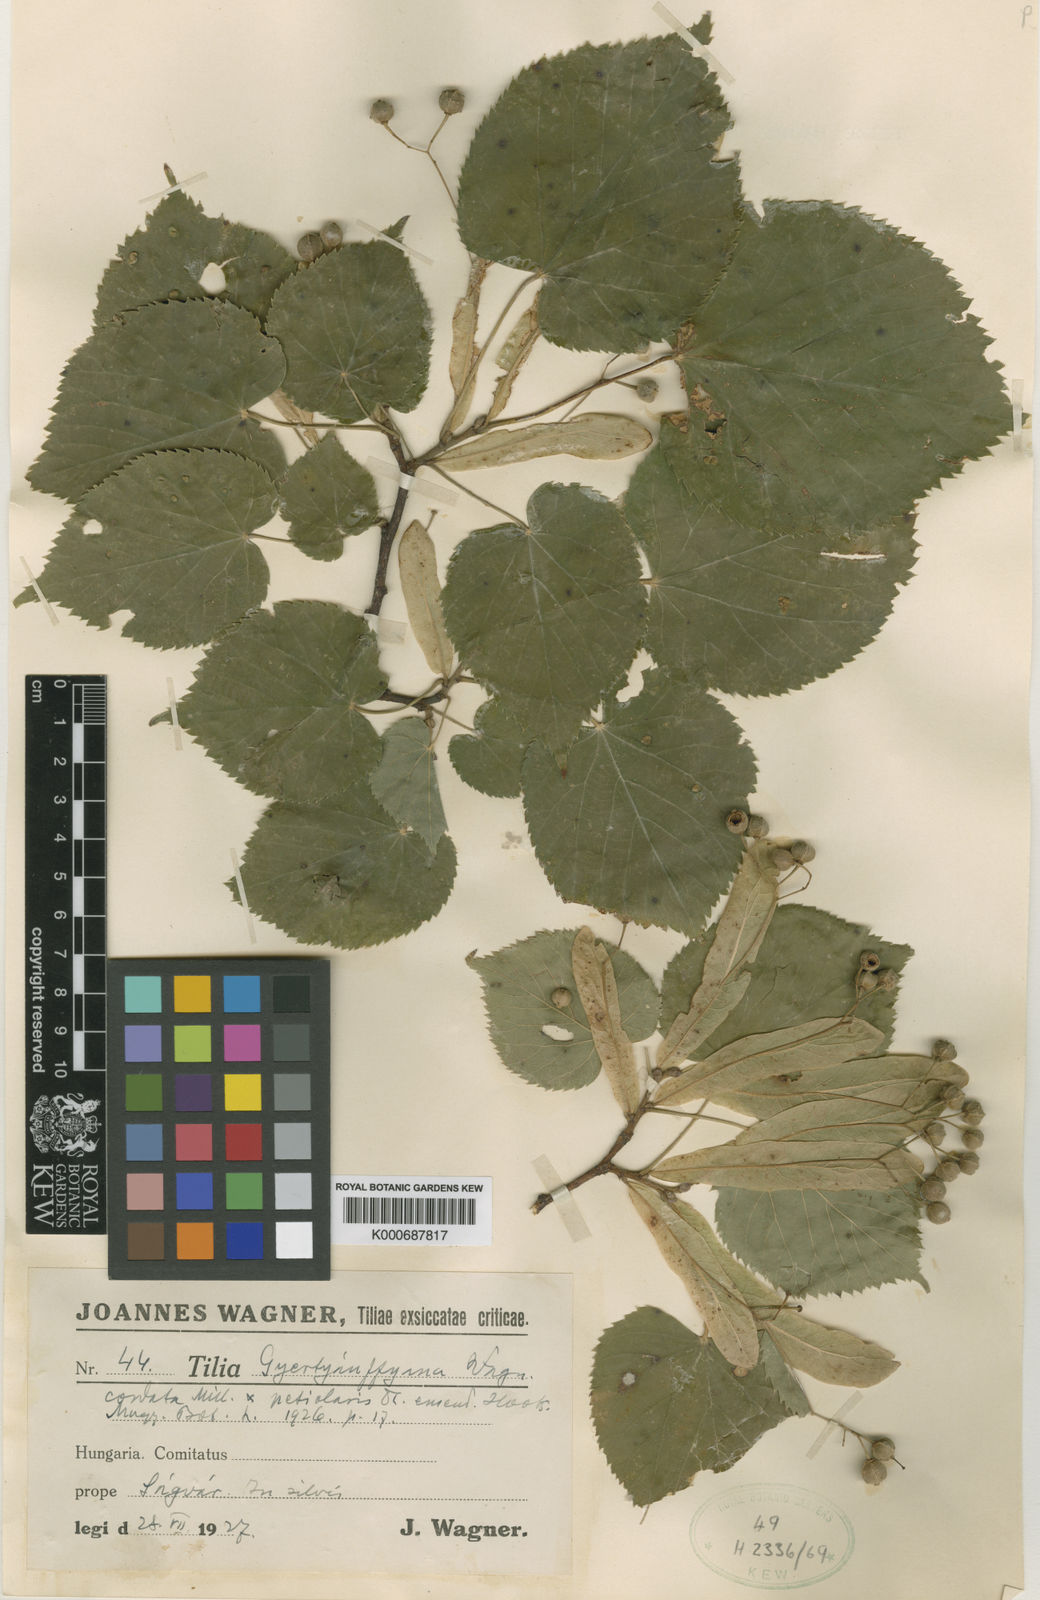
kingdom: Plantae
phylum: Tracheophyta
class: Magnoliopsida
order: Malvales
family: Malvaceae
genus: Tilia
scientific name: Tilia
